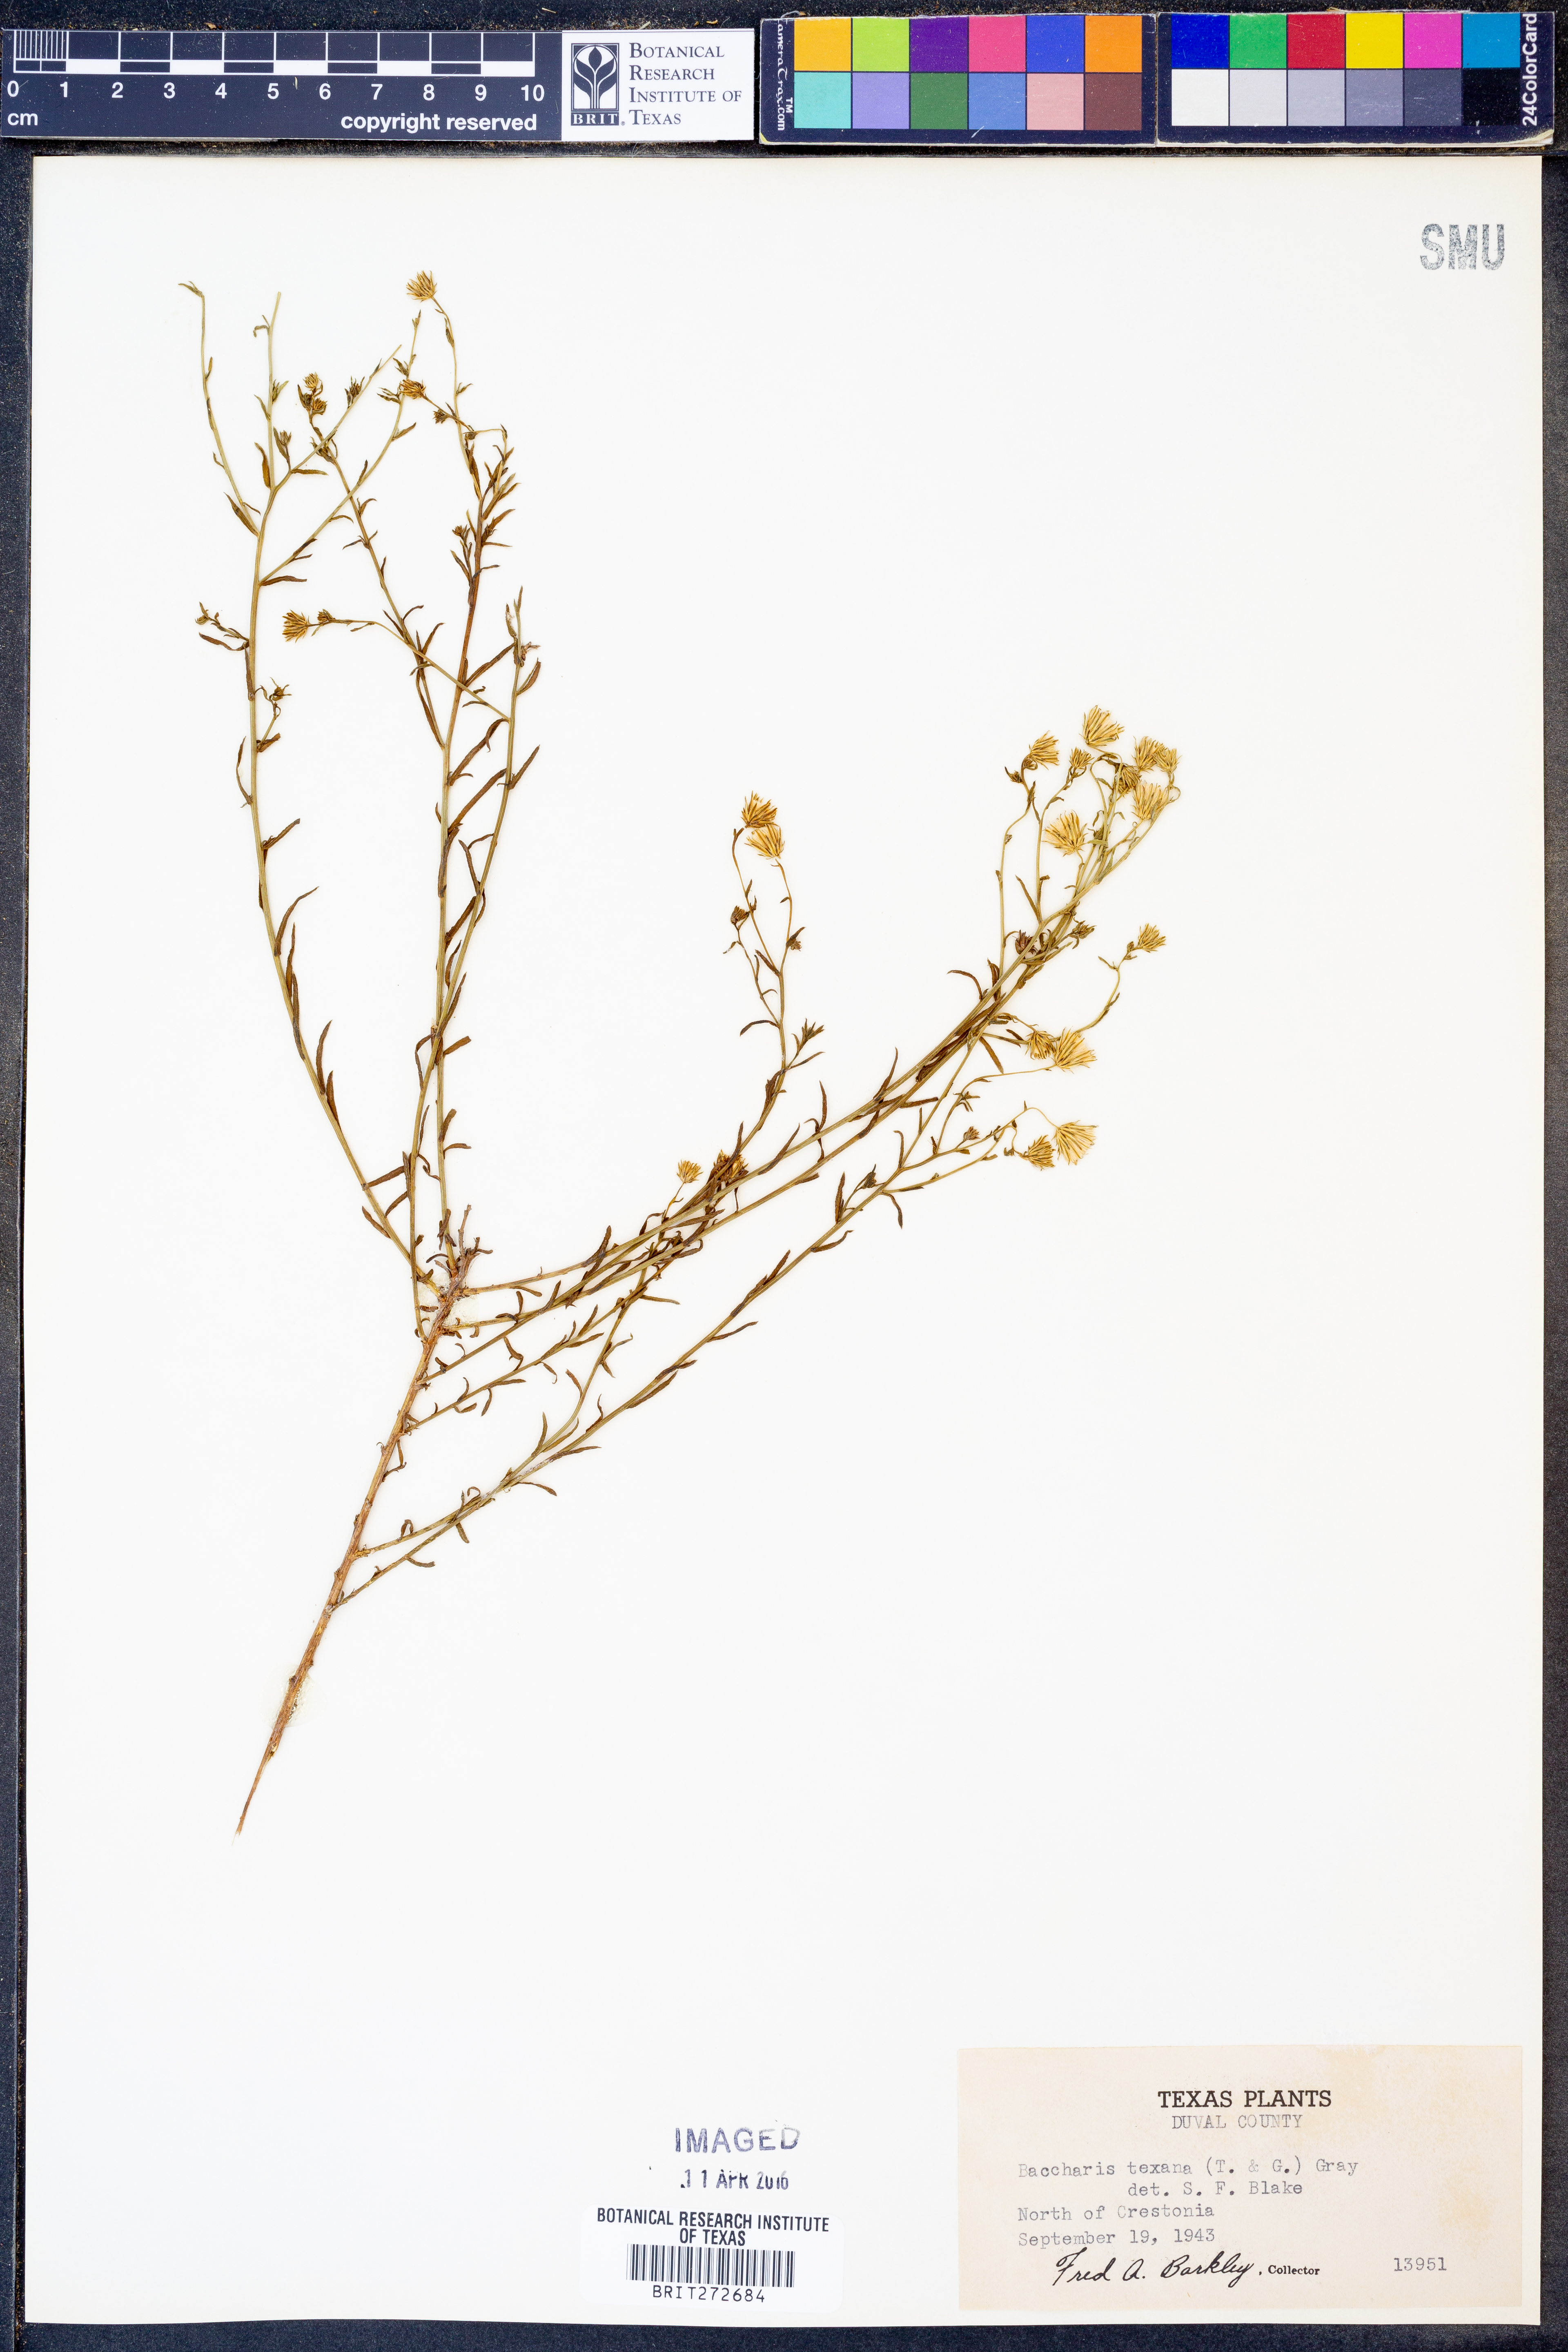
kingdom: Plantae
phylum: Tracheophyta
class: Magnoliopsida
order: Asterales
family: Asteraceae
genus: Baccharis
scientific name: Baccharis texana
